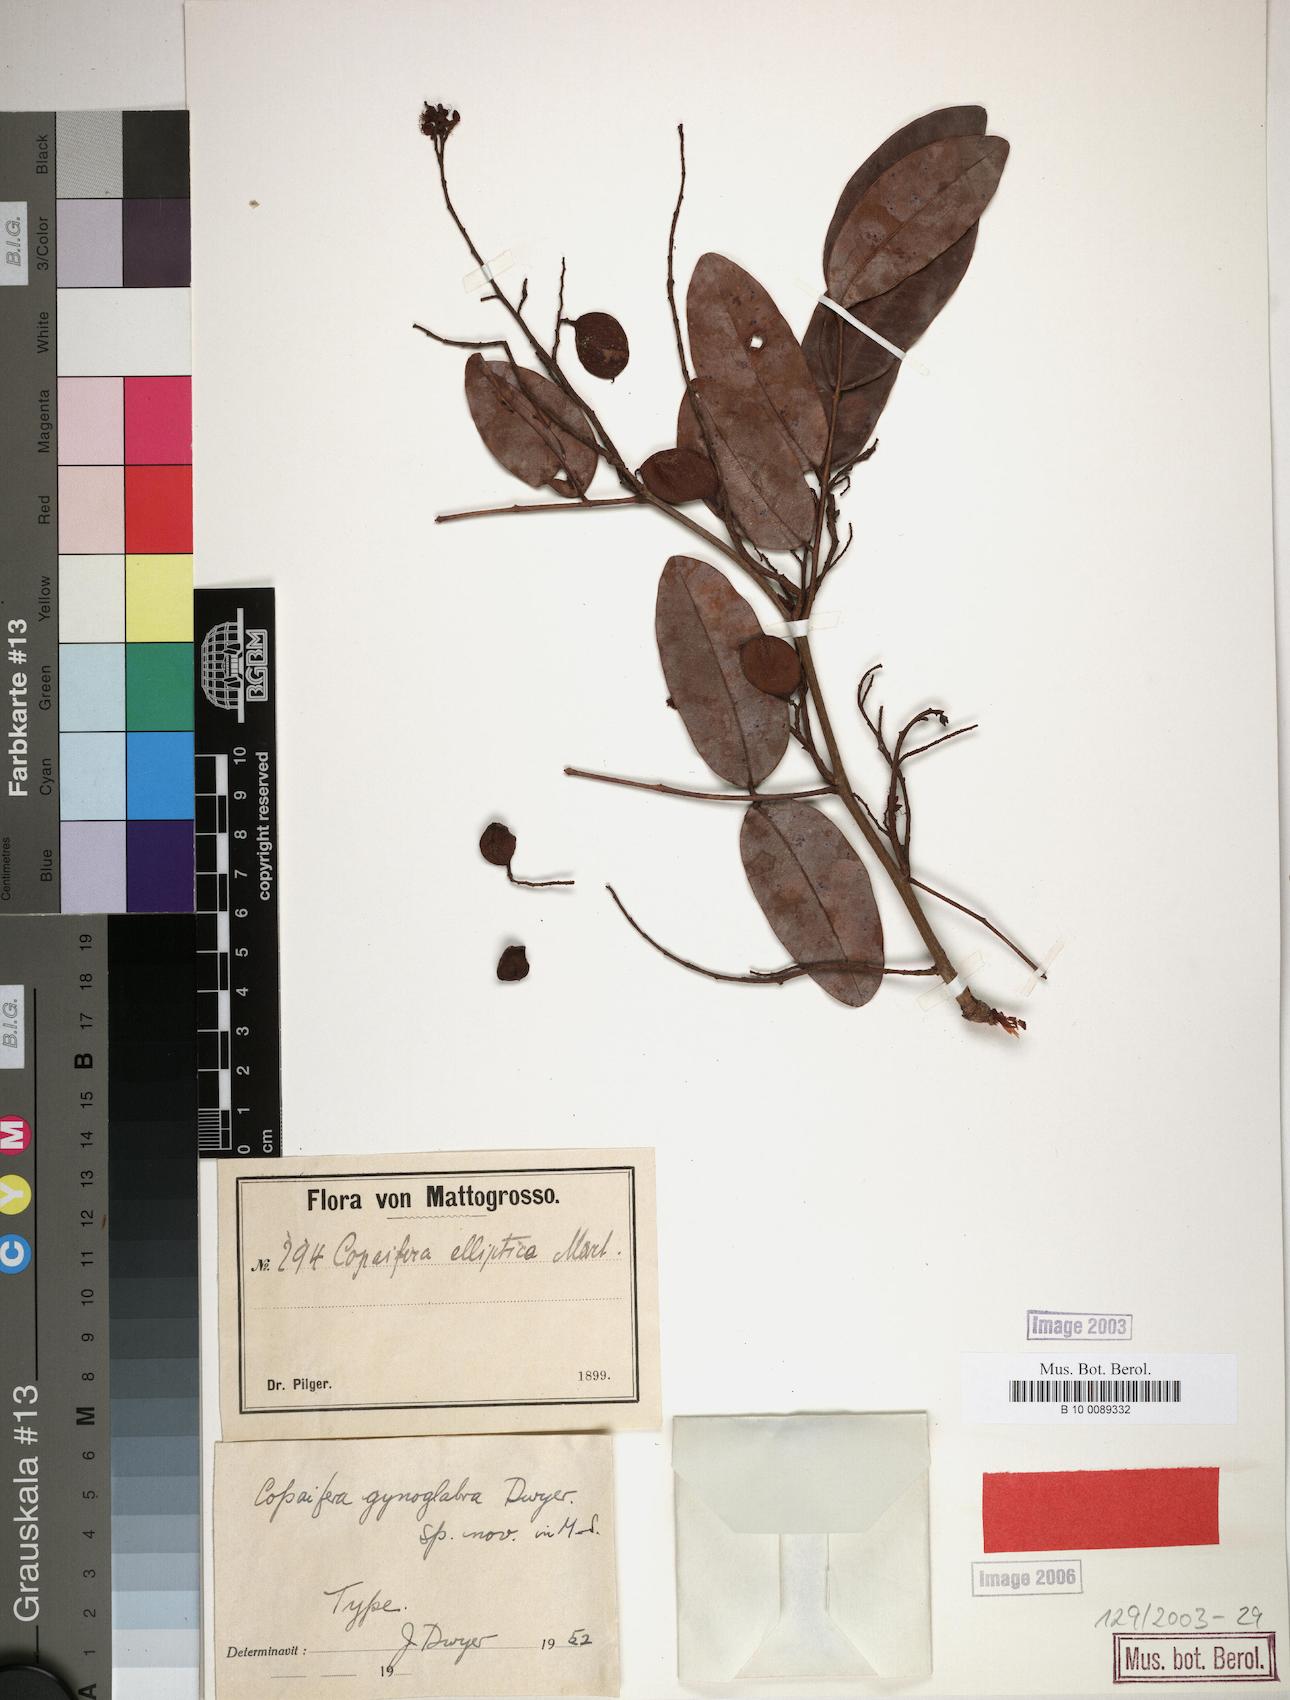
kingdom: Plantae
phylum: Tracheophyta
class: Magnoliopsida
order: Fabales
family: Fabaceae
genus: Copaifera
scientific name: Copaifera
